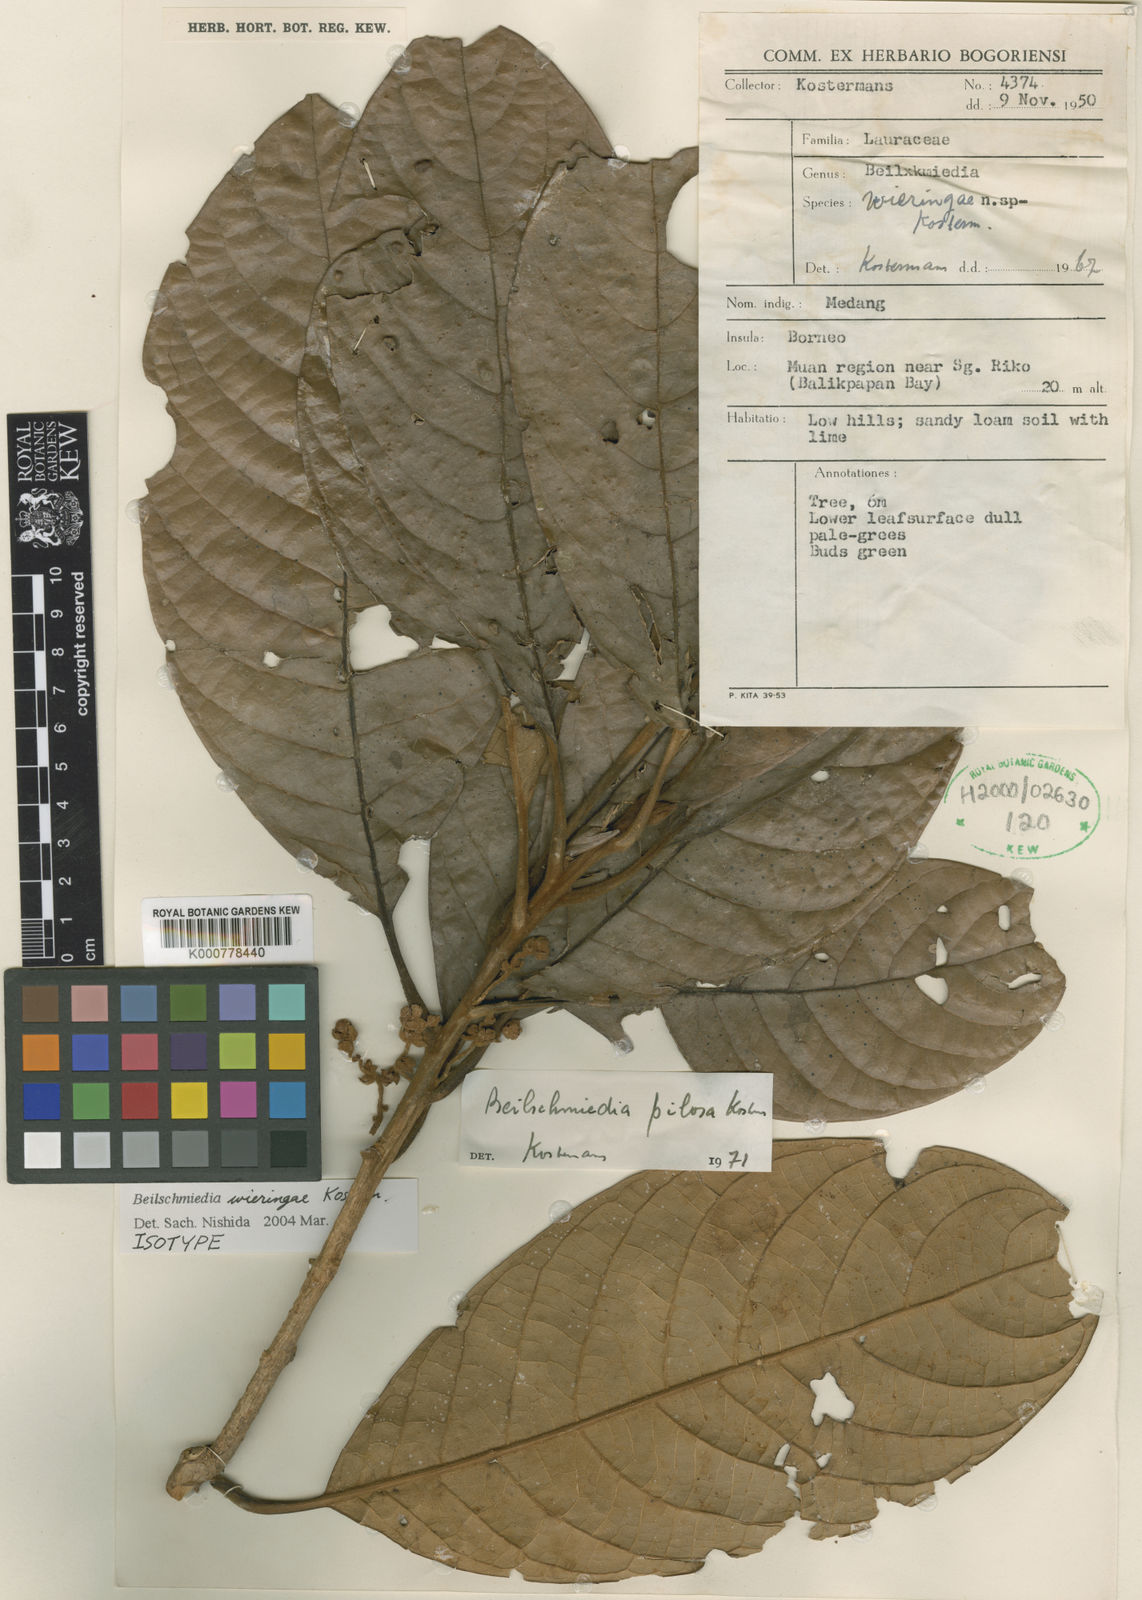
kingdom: Plantae
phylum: Tracheophyta
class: Magnoliopsida
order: Laurales
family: Lauraceae
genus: Beilschmiedia
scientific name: Beilschmiedia wieringae
